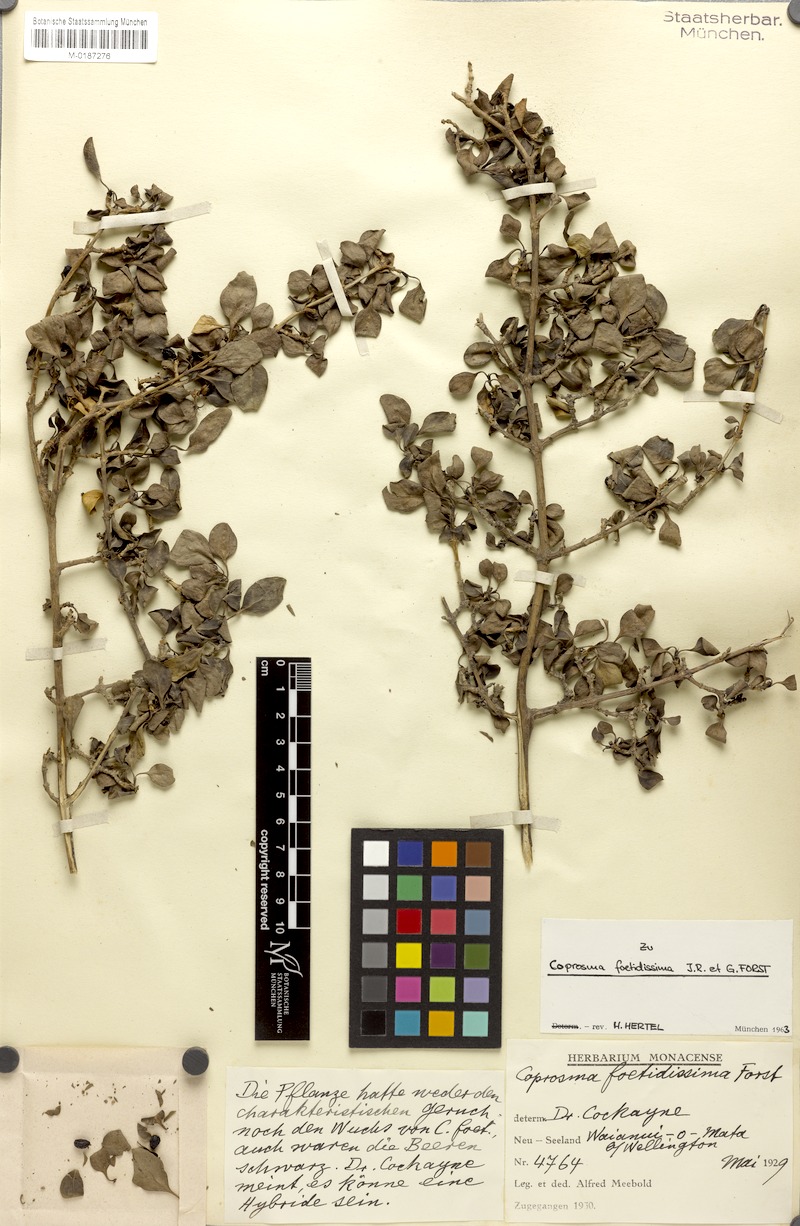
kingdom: Plantae
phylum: Tracheophyta
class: Magnoliopsida
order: Gentianales
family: Rubiaceae
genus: Coprosma
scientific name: Coprosma foetidissima
